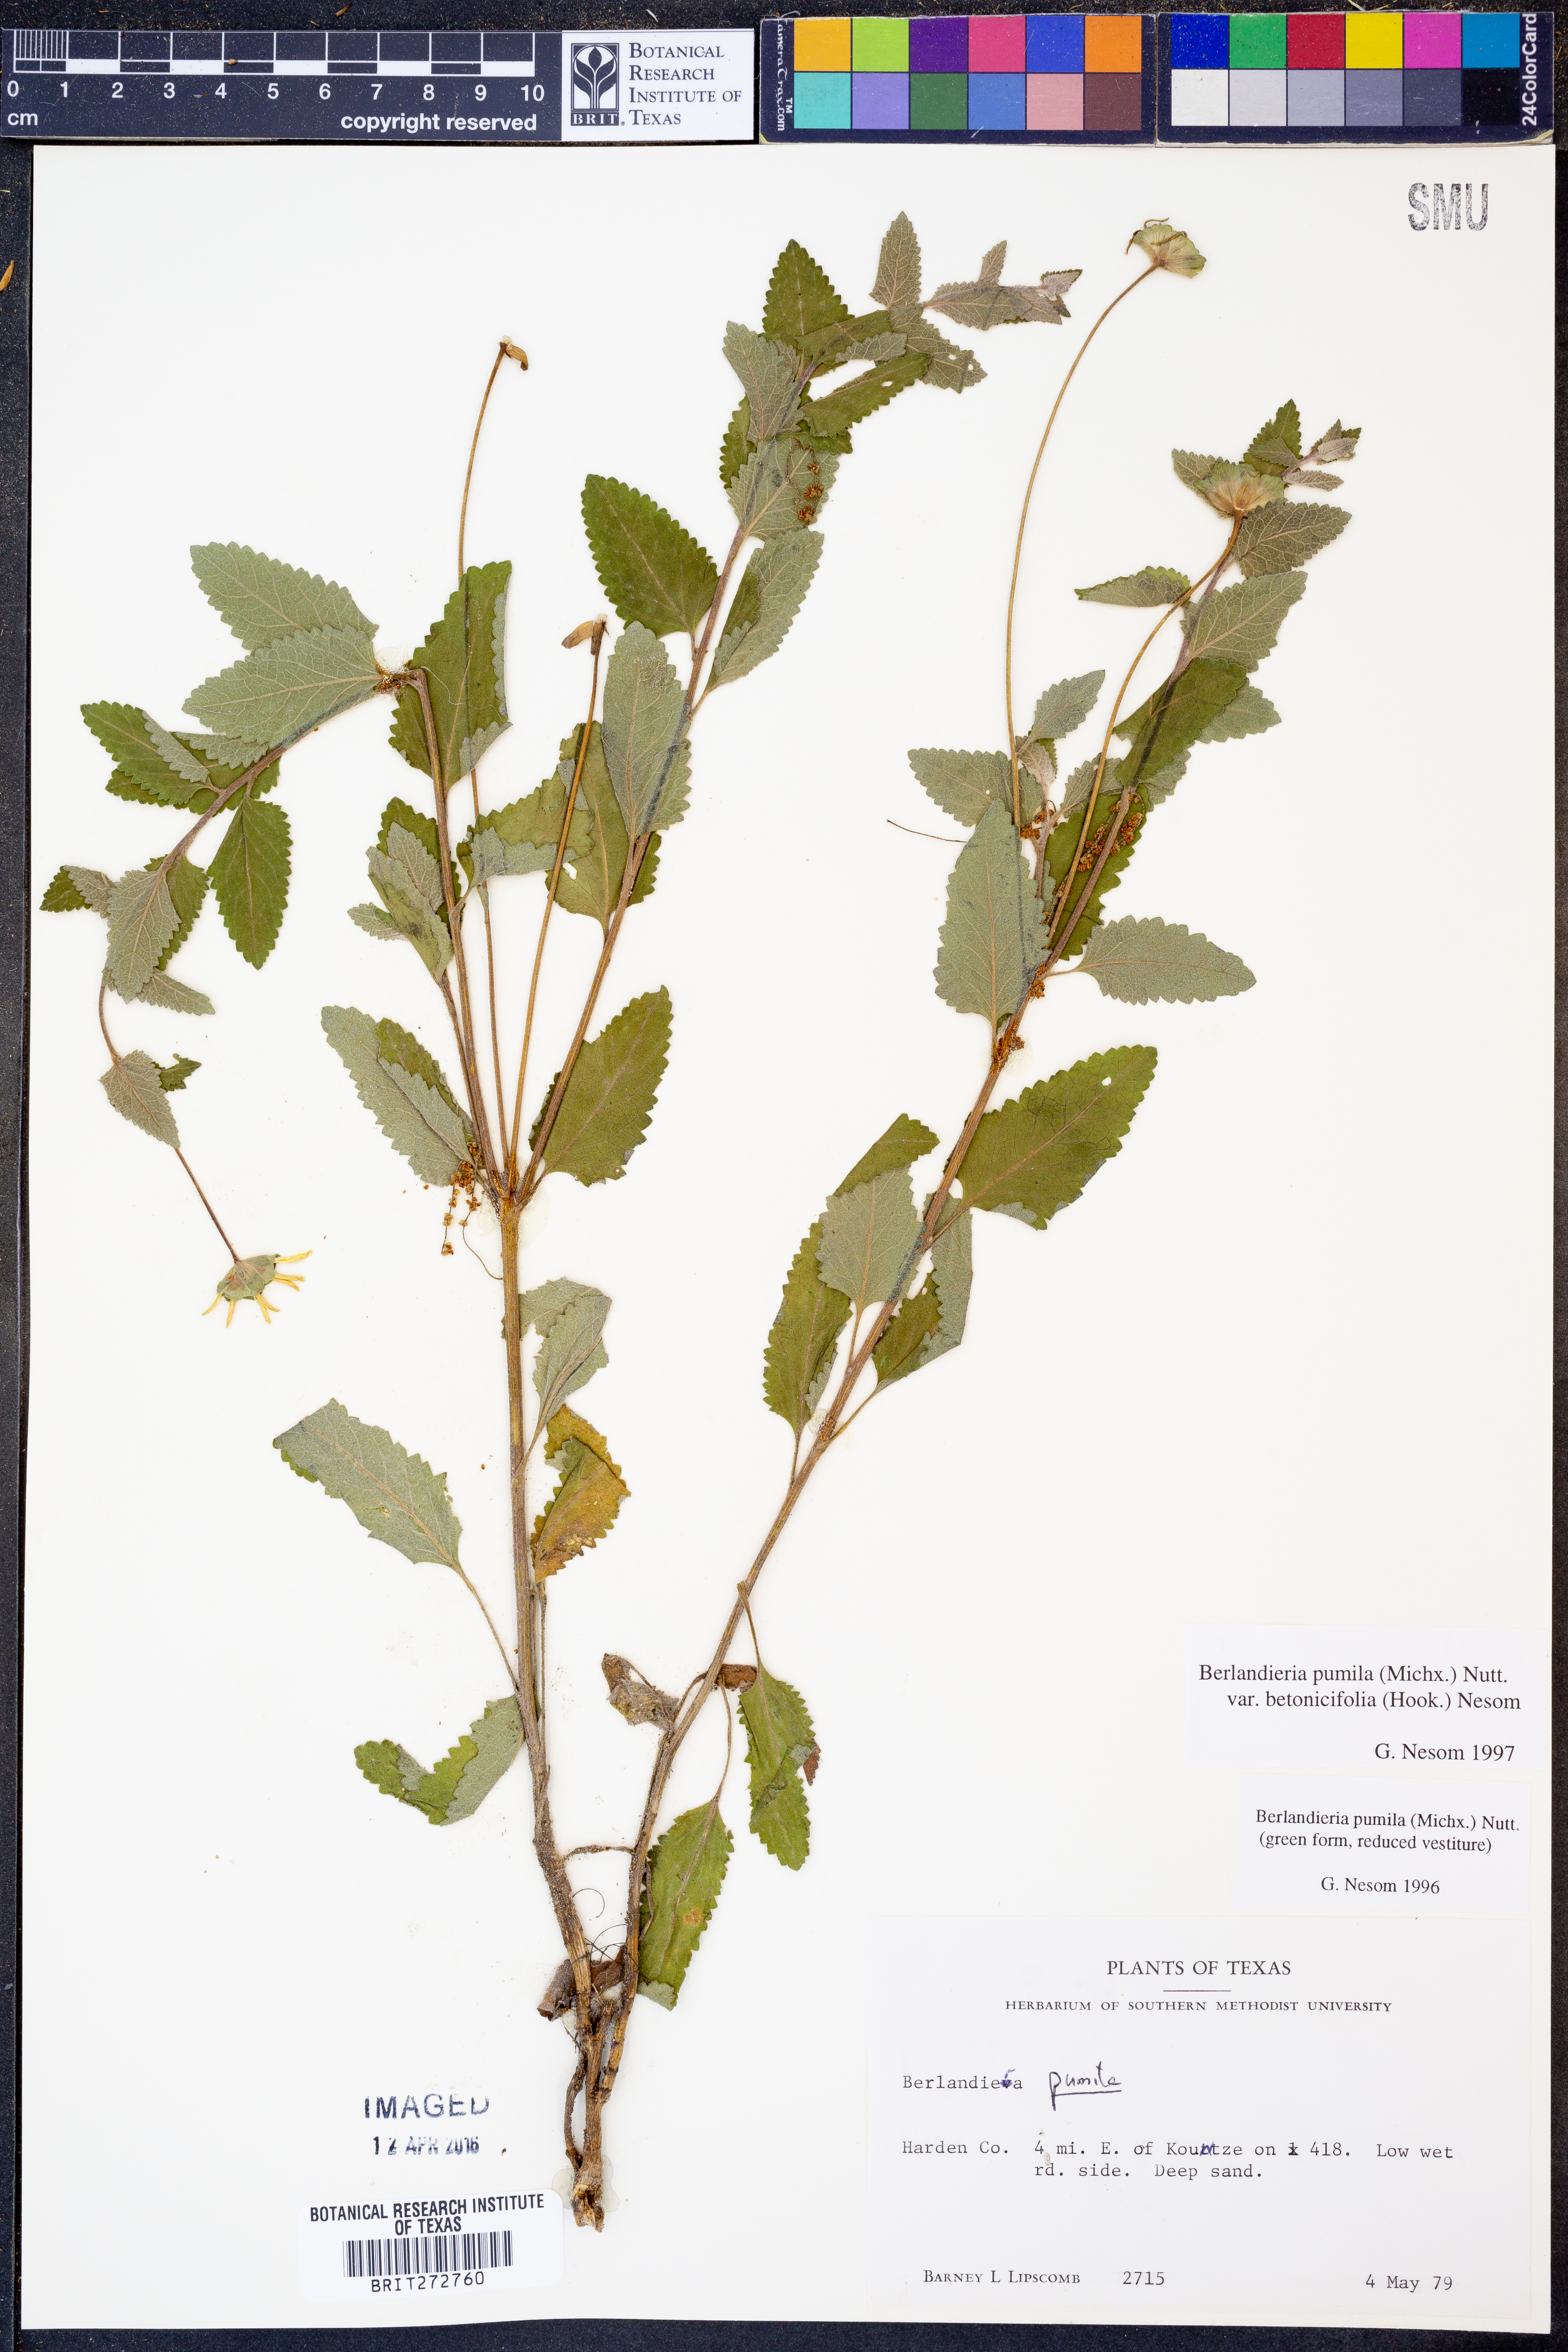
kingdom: Plantae
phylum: Tracheophyta
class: Magnoliopsida
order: Asterales
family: Asteraceae
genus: Berlandiera
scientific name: Berlandiera pumila
